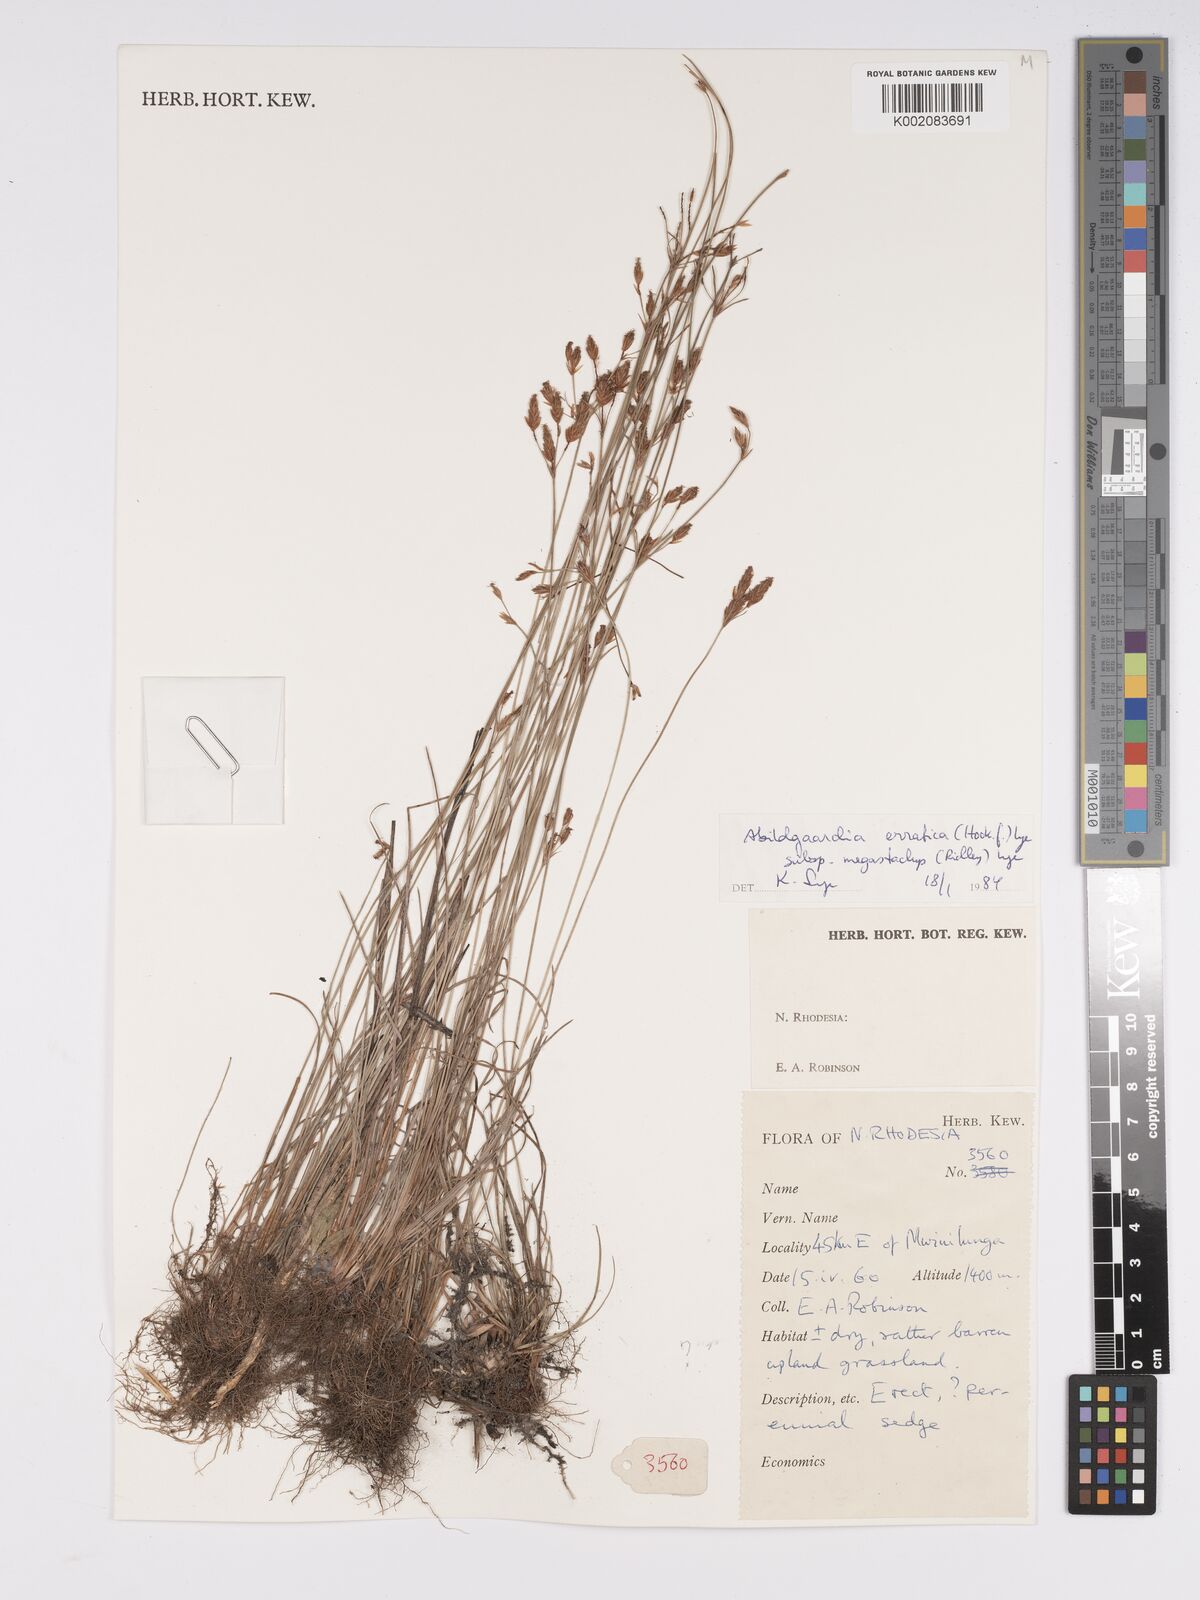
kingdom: Plantae
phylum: Tracheophyta
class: Liliopsida
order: Poales
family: Cyperaceae
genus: Bulbostylis
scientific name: Bulbostylis schoenoides
